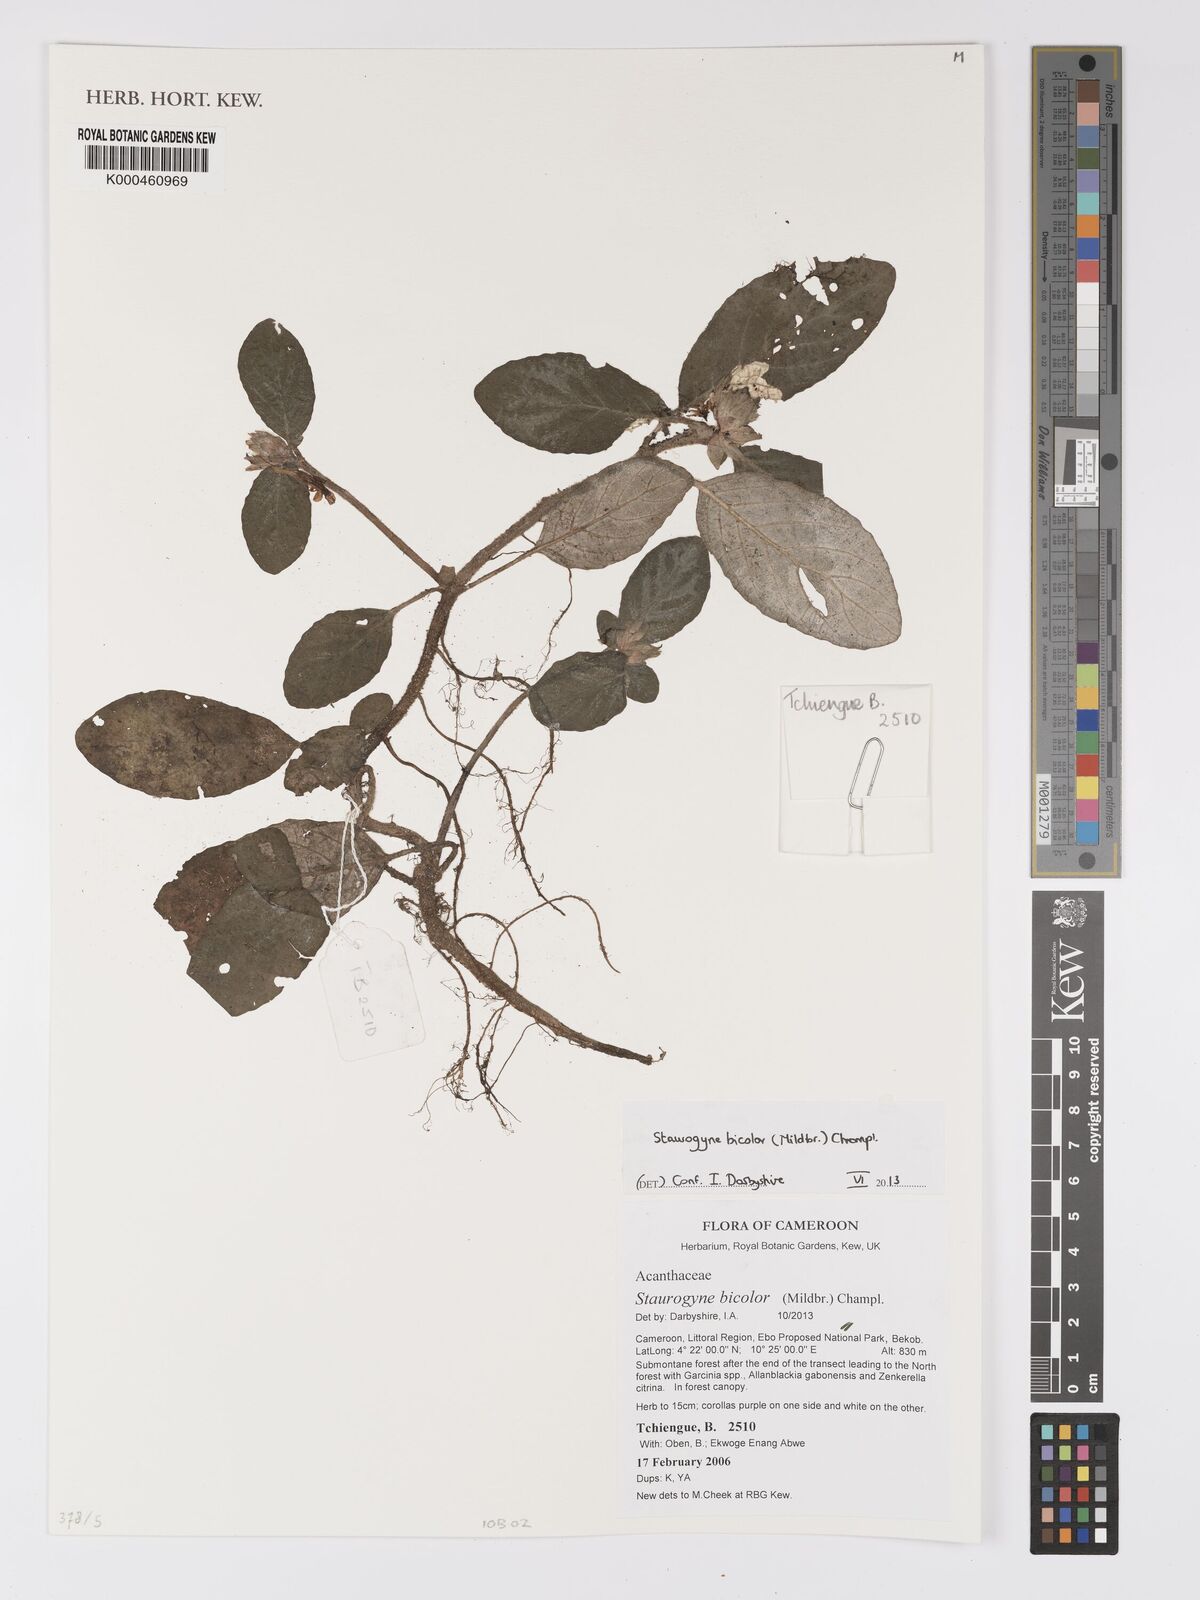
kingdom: Plantae
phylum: Tracheophyta
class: Magnoliopsida
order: Lamiales
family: Acanthaceae
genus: Staurogyne
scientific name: Staurogyne bicolor
